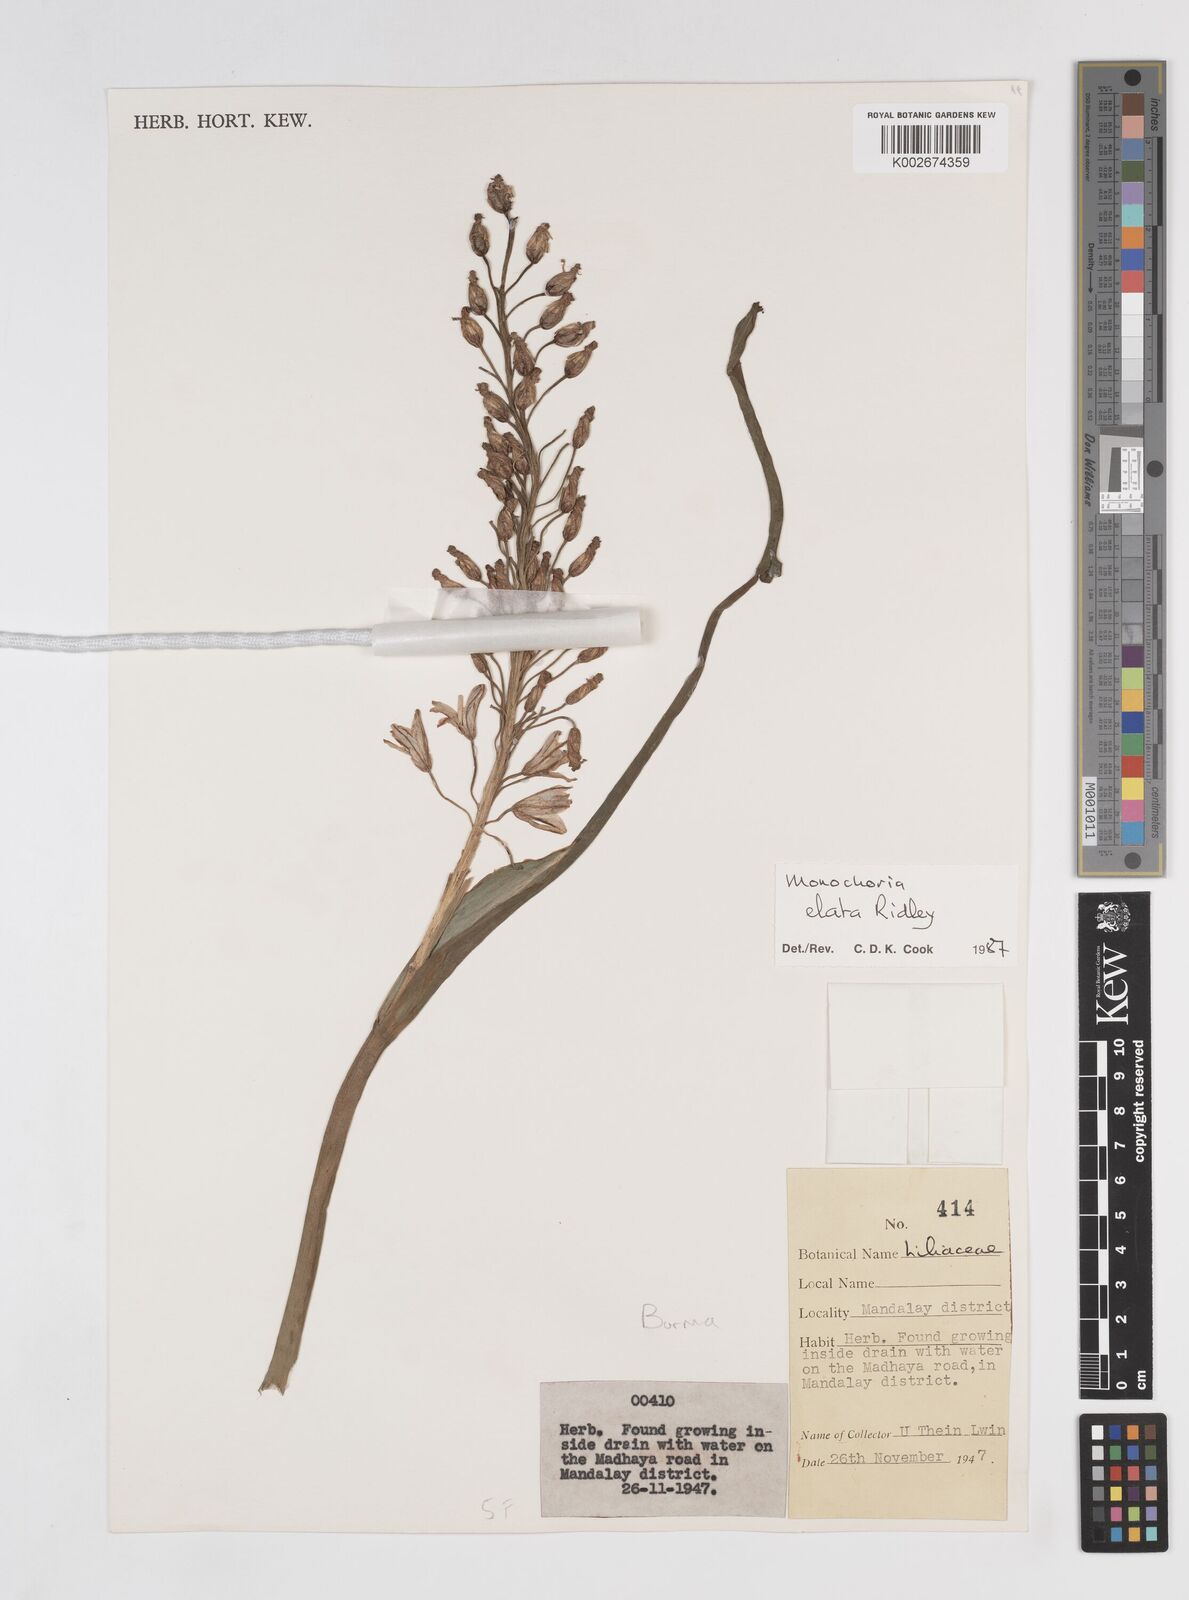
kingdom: Plantae
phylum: Tracheophyta
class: Liliopsida
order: Commelinales
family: Pontederiaceae
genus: Pontederia
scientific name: Pontederia elata
